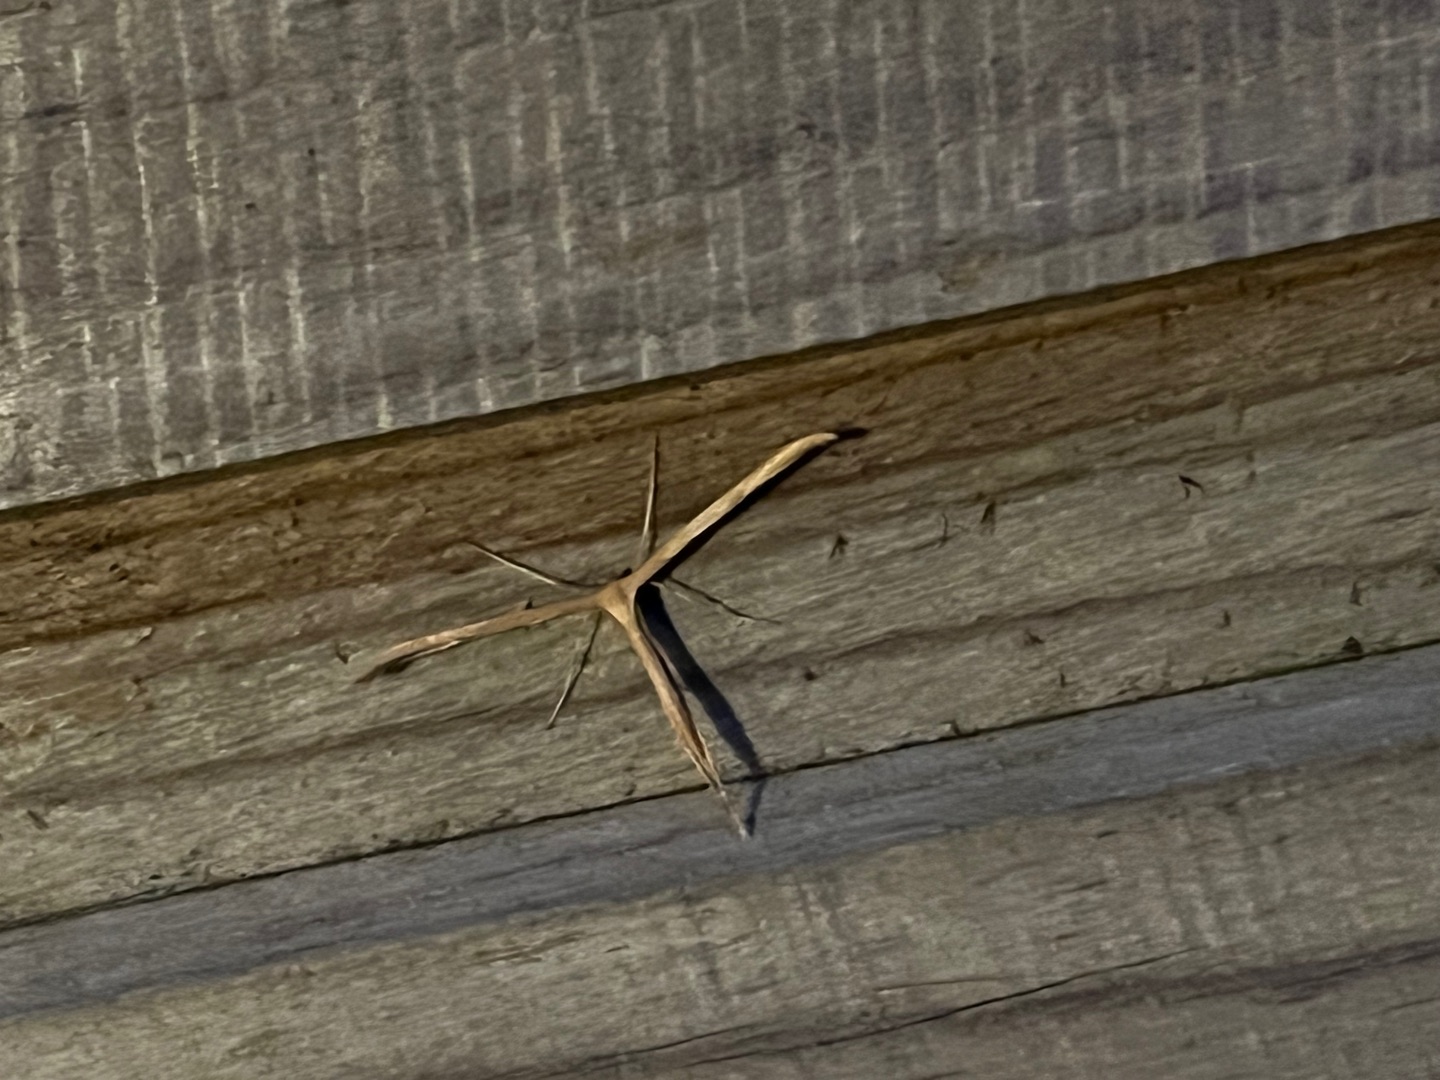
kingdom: Animalia
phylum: Arthropoda
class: Insecta
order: Lepidoptera
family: Pterophoridae
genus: Emmelina
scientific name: Emmelina monodactyla
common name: Snerlefjermøl
